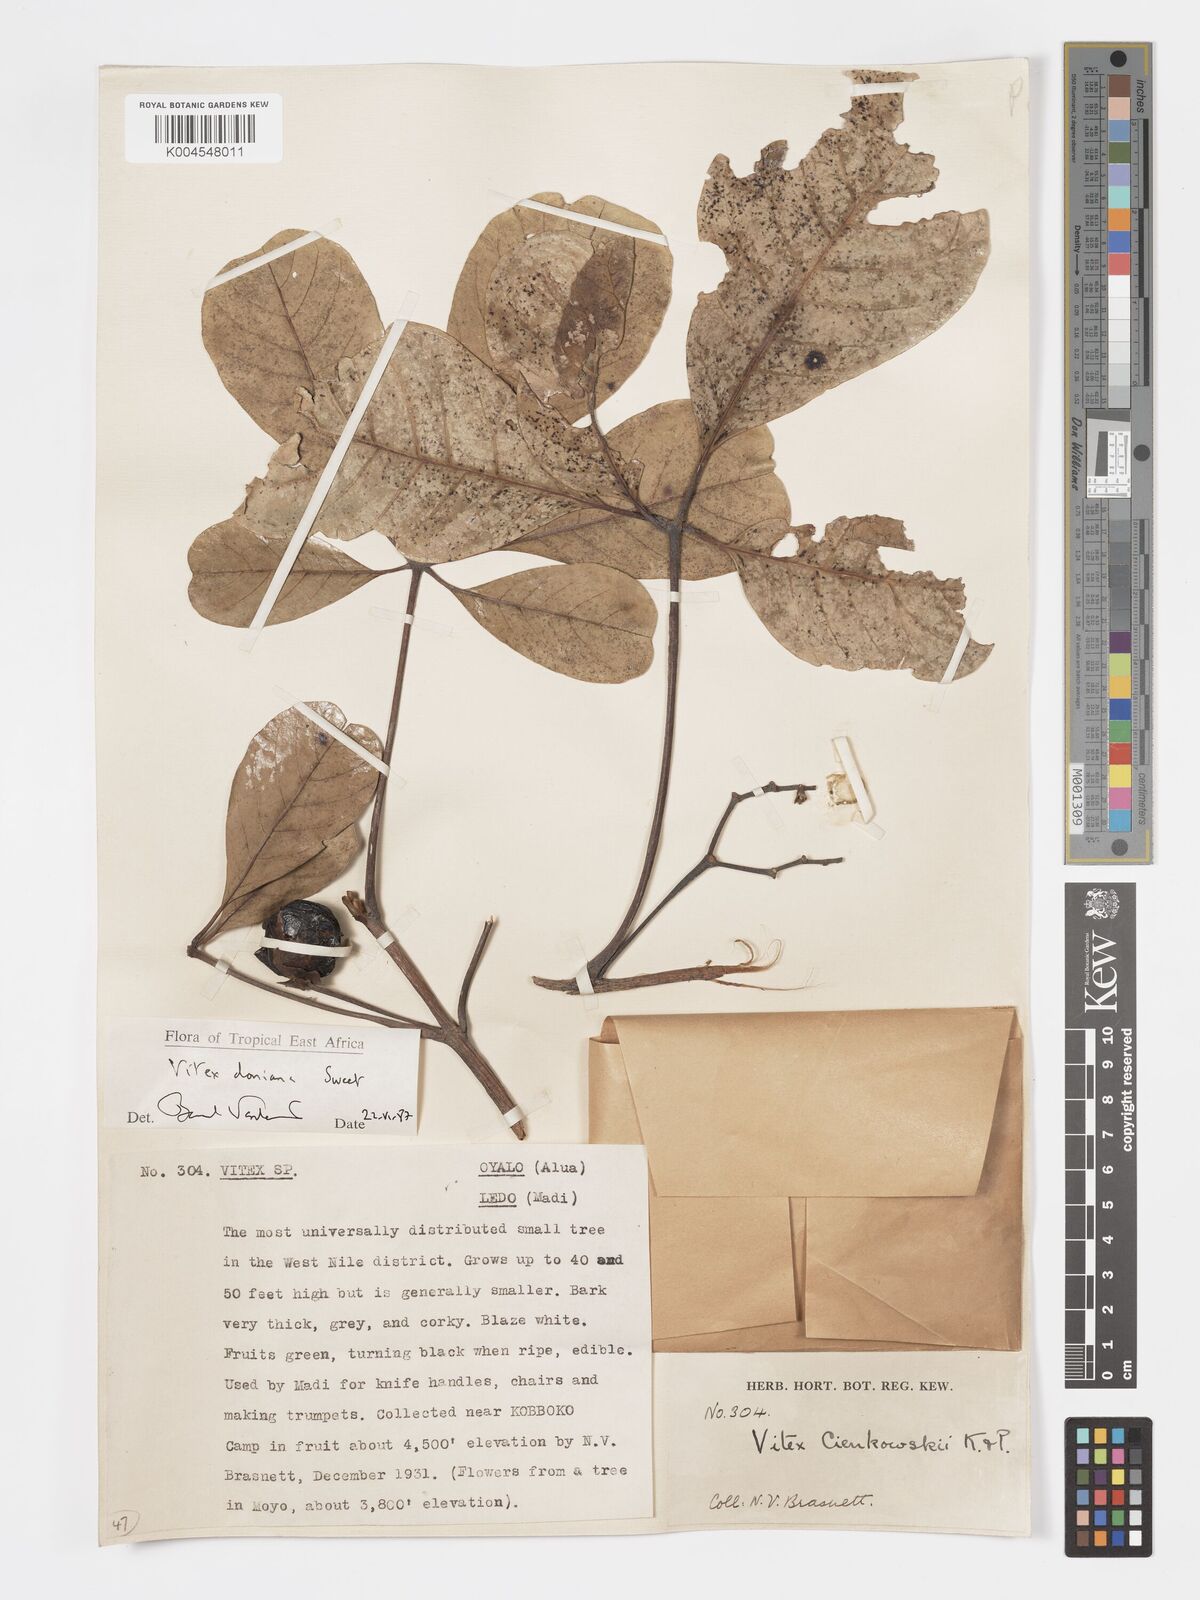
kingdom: Plantae
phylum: Tracheophyta
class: Magnoliopsida
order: Lamiales
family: Lamiaceae
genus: Vitex
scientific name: Vitex doniana
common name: Black plum
